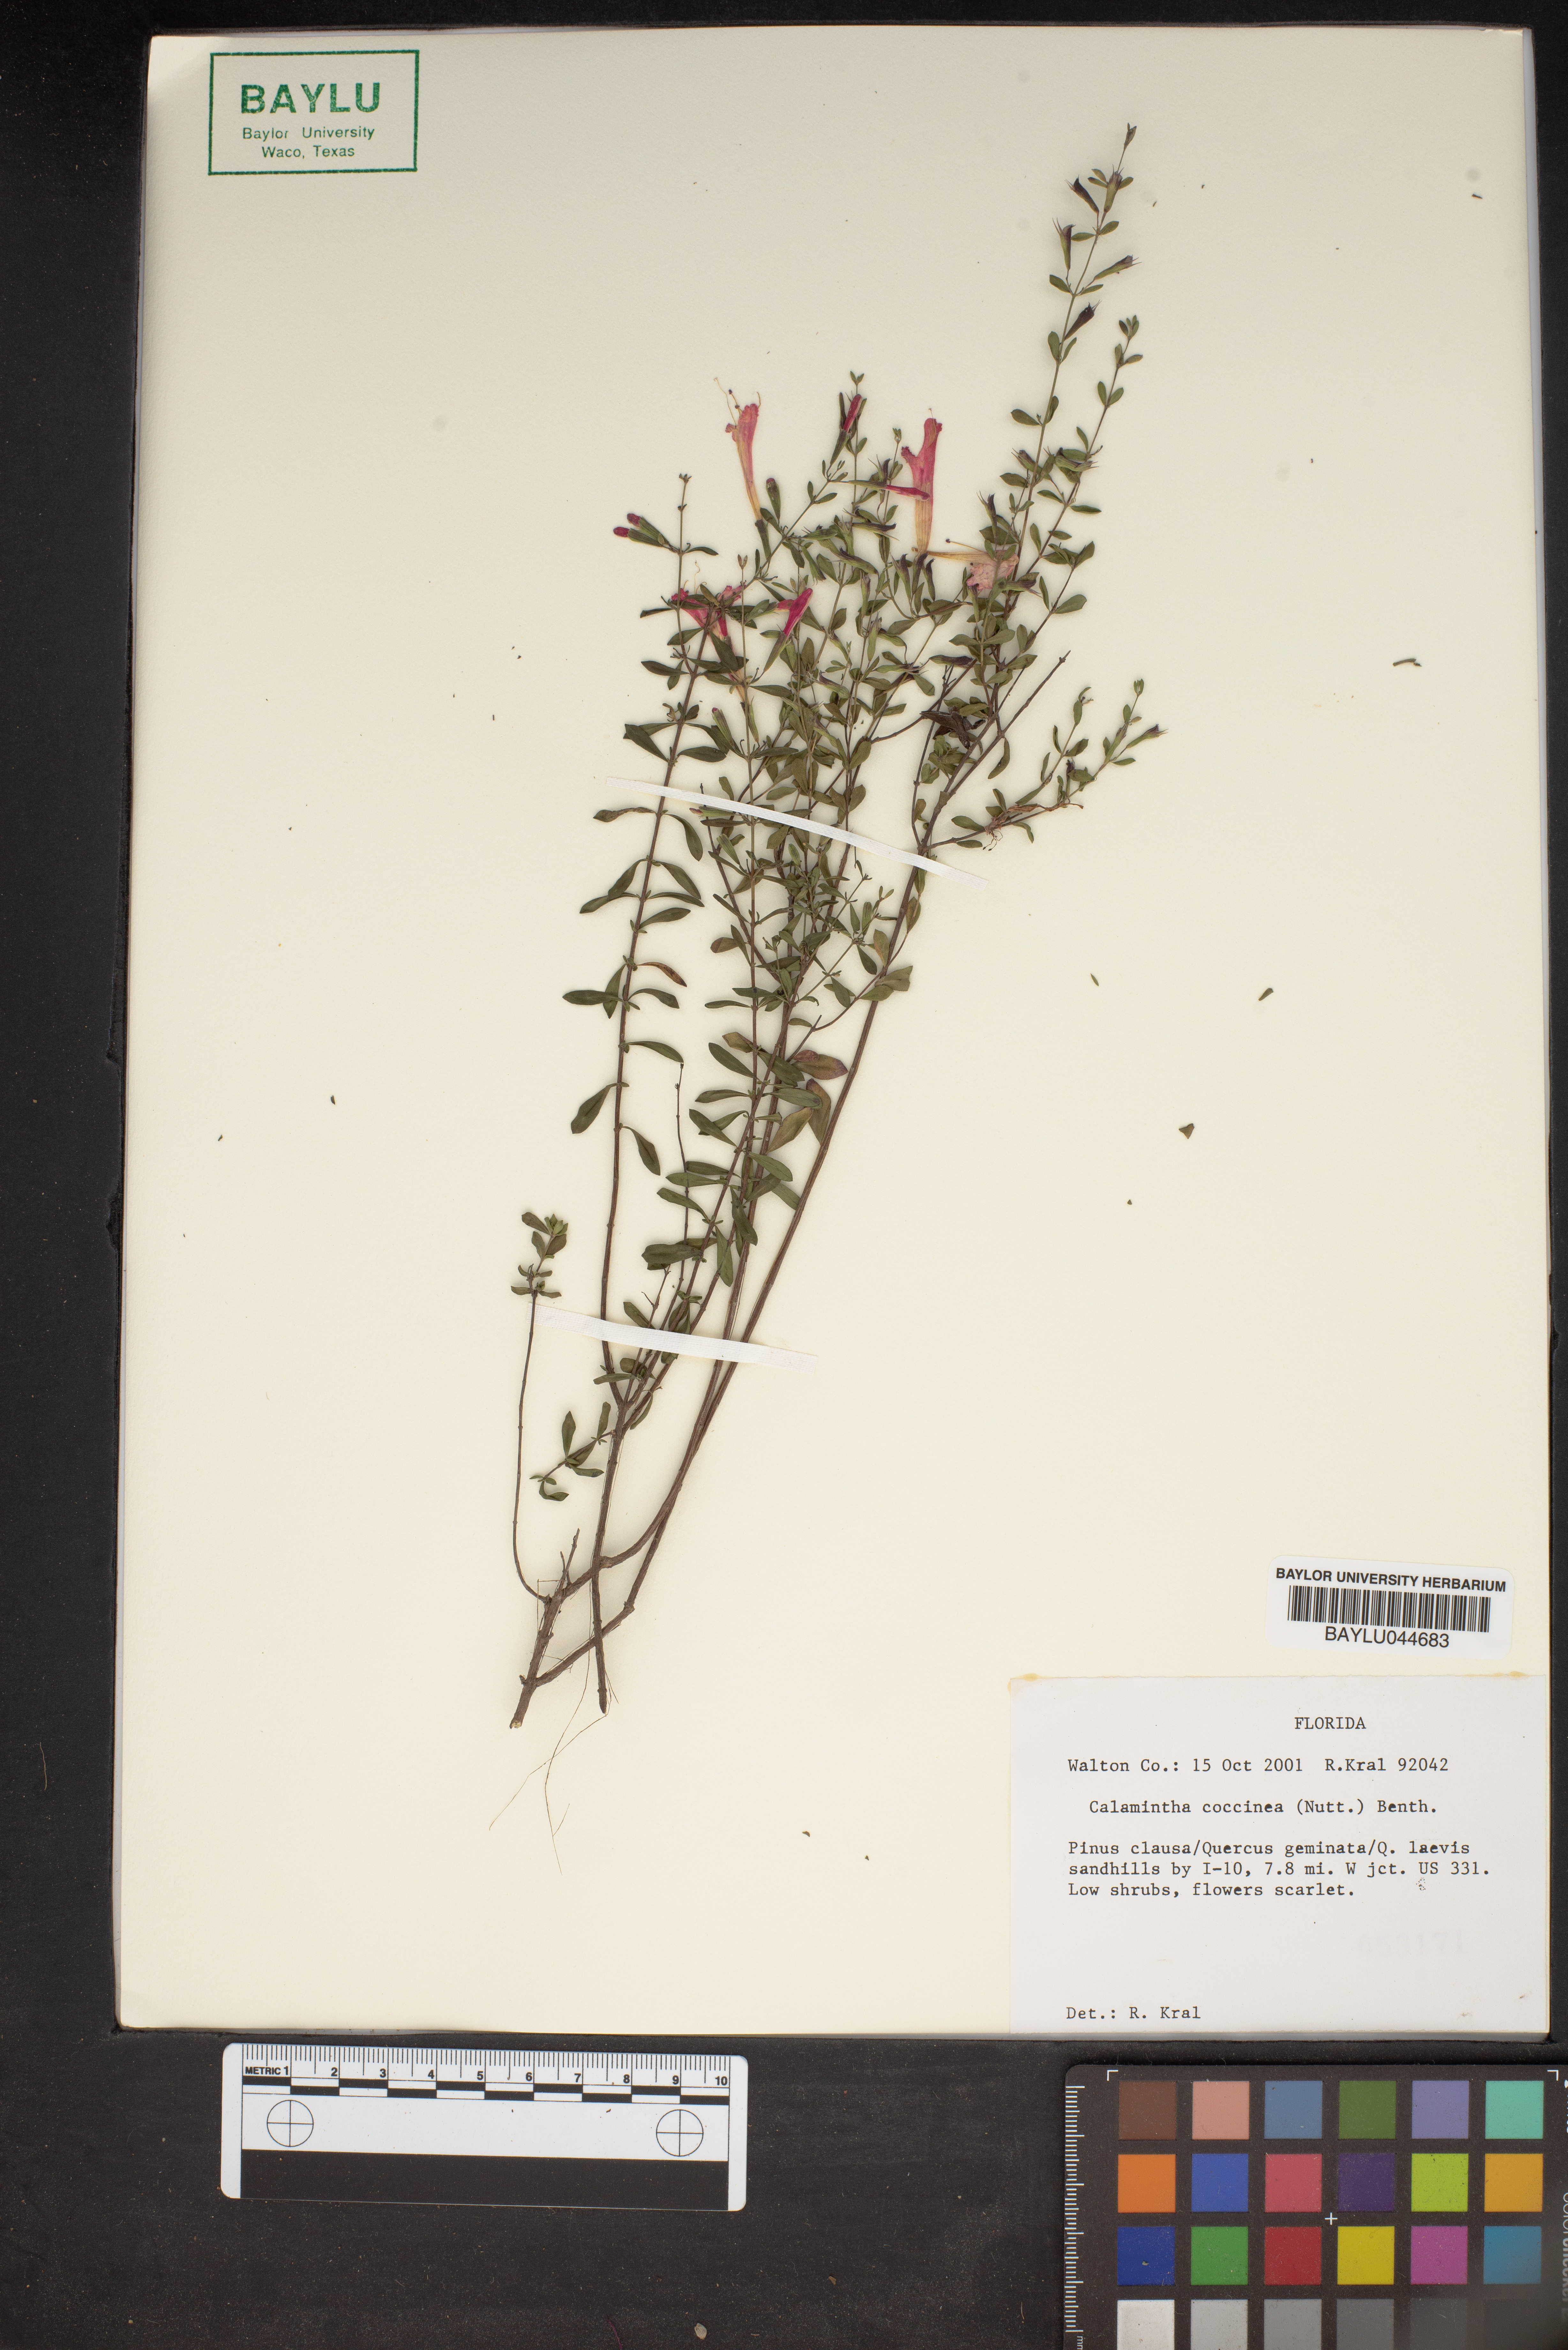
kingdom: Plantae
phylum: Tracheophyta
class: Magnoliopsida
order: Lamiales
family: Lamiaceae
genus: Clinopodium
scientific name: Clinopodium coccineum
